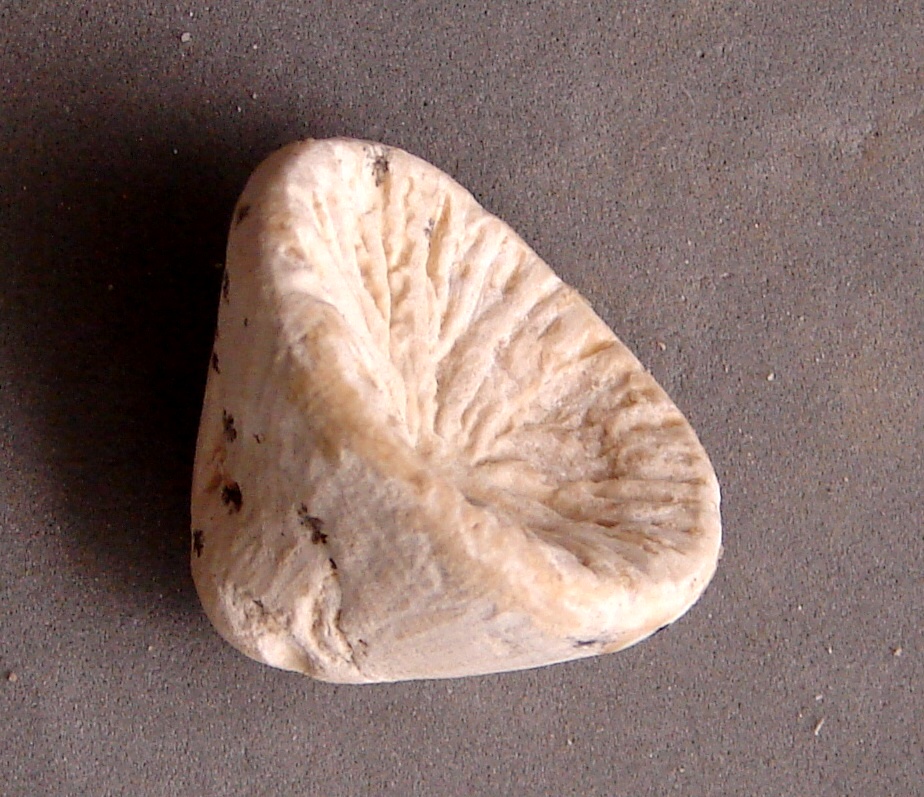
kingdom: Animalia
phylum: Cnidaria
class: Anthozoa
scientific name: Anthozoa
